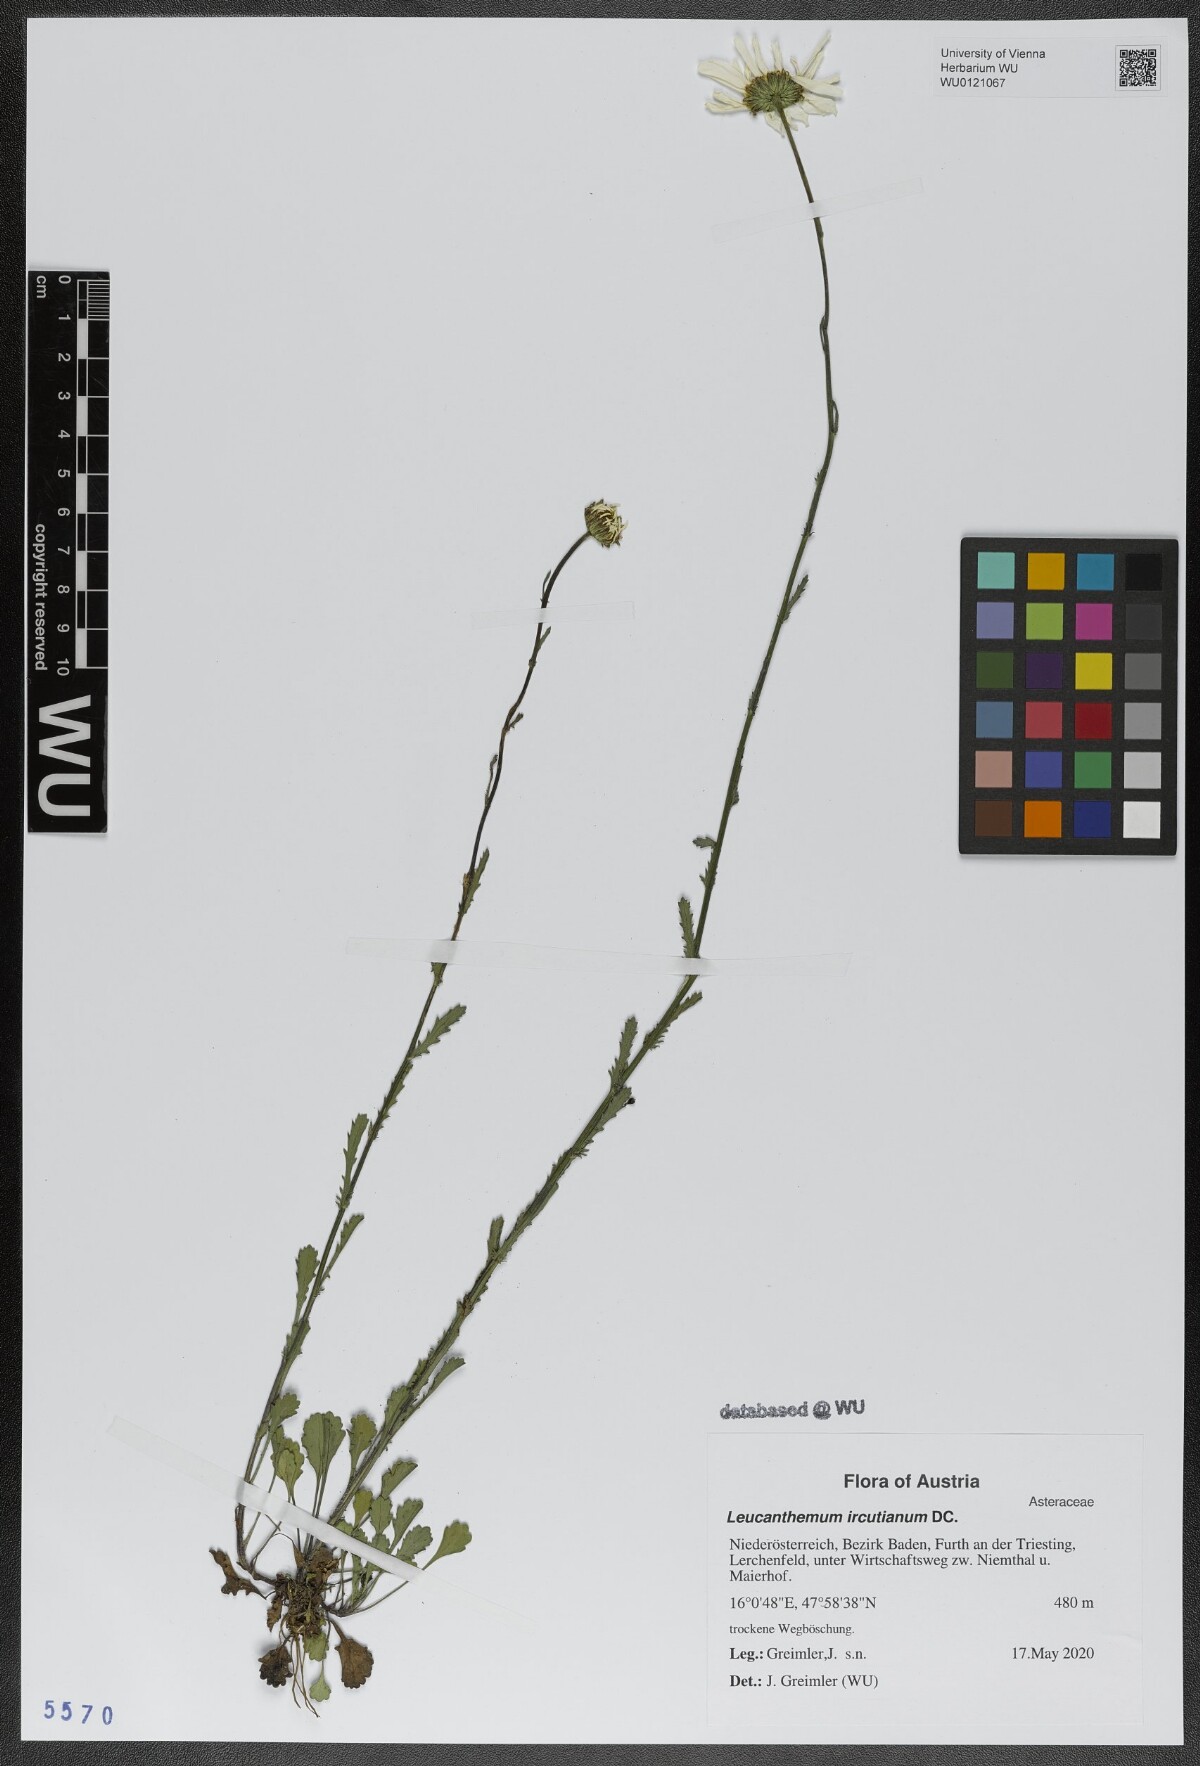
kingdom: Plantae
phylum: Tracheophyta
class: Magnoliopsida
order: Asterales
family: Asteraceae
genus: Leucanthemum
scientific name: Leucanthemum ircutianum
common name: Daisy
